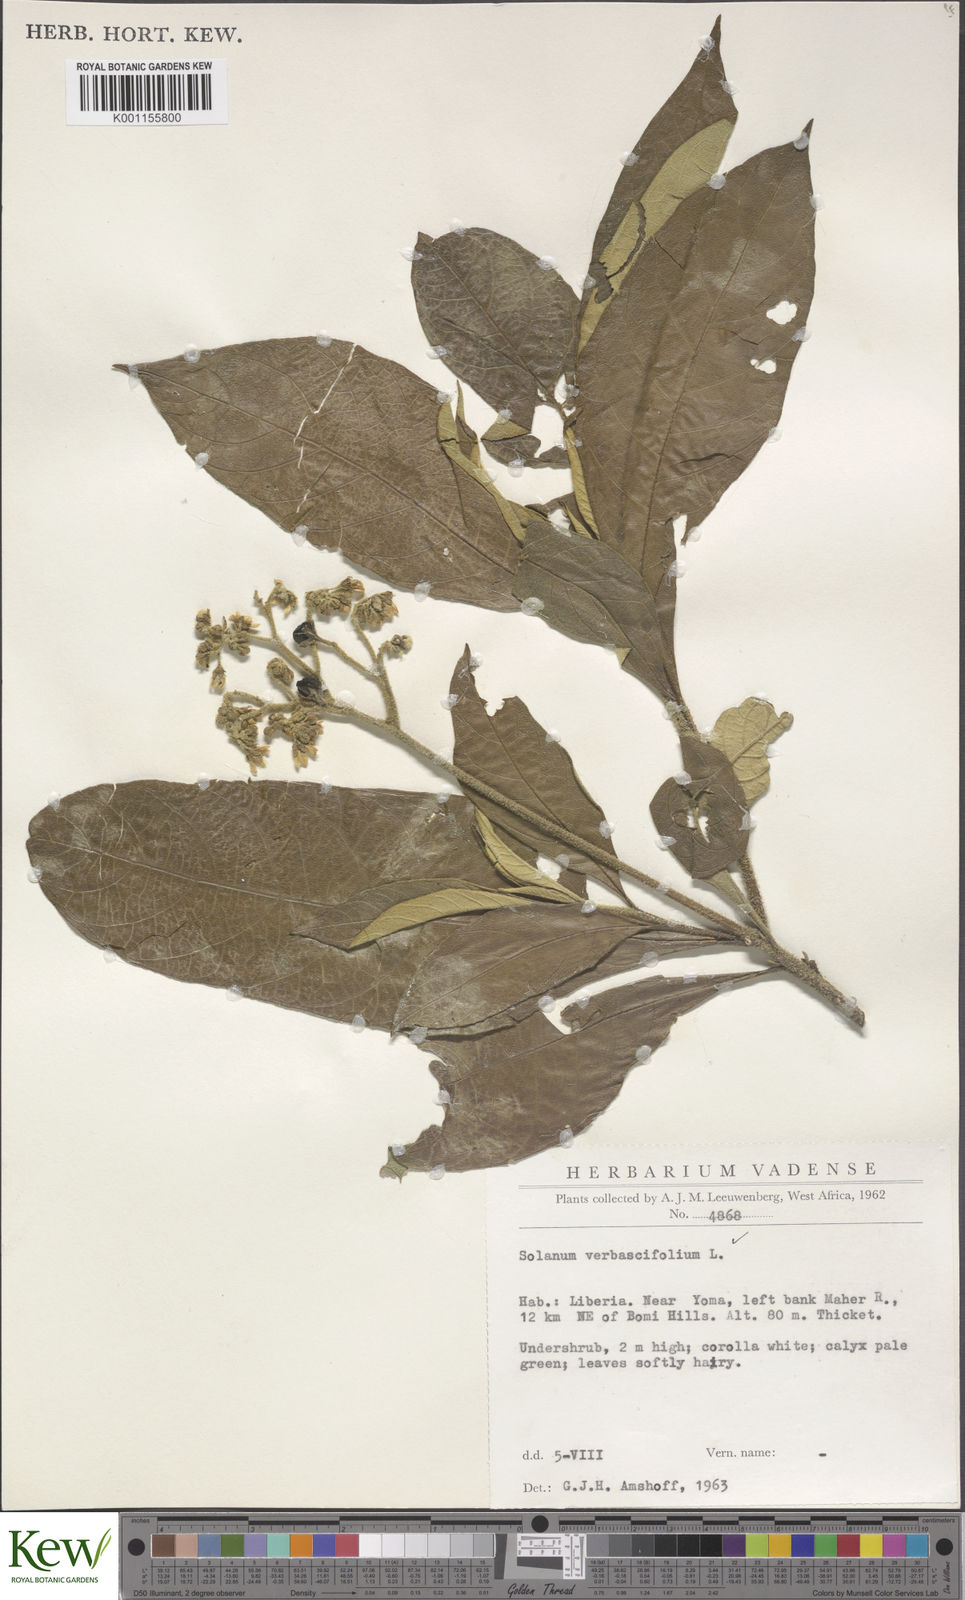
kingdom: Plantae
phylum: Tracheophyta
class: Magnoliopsida
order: Solanales
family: Solanaceae
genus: Solanum
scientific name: Solanum rugosum
